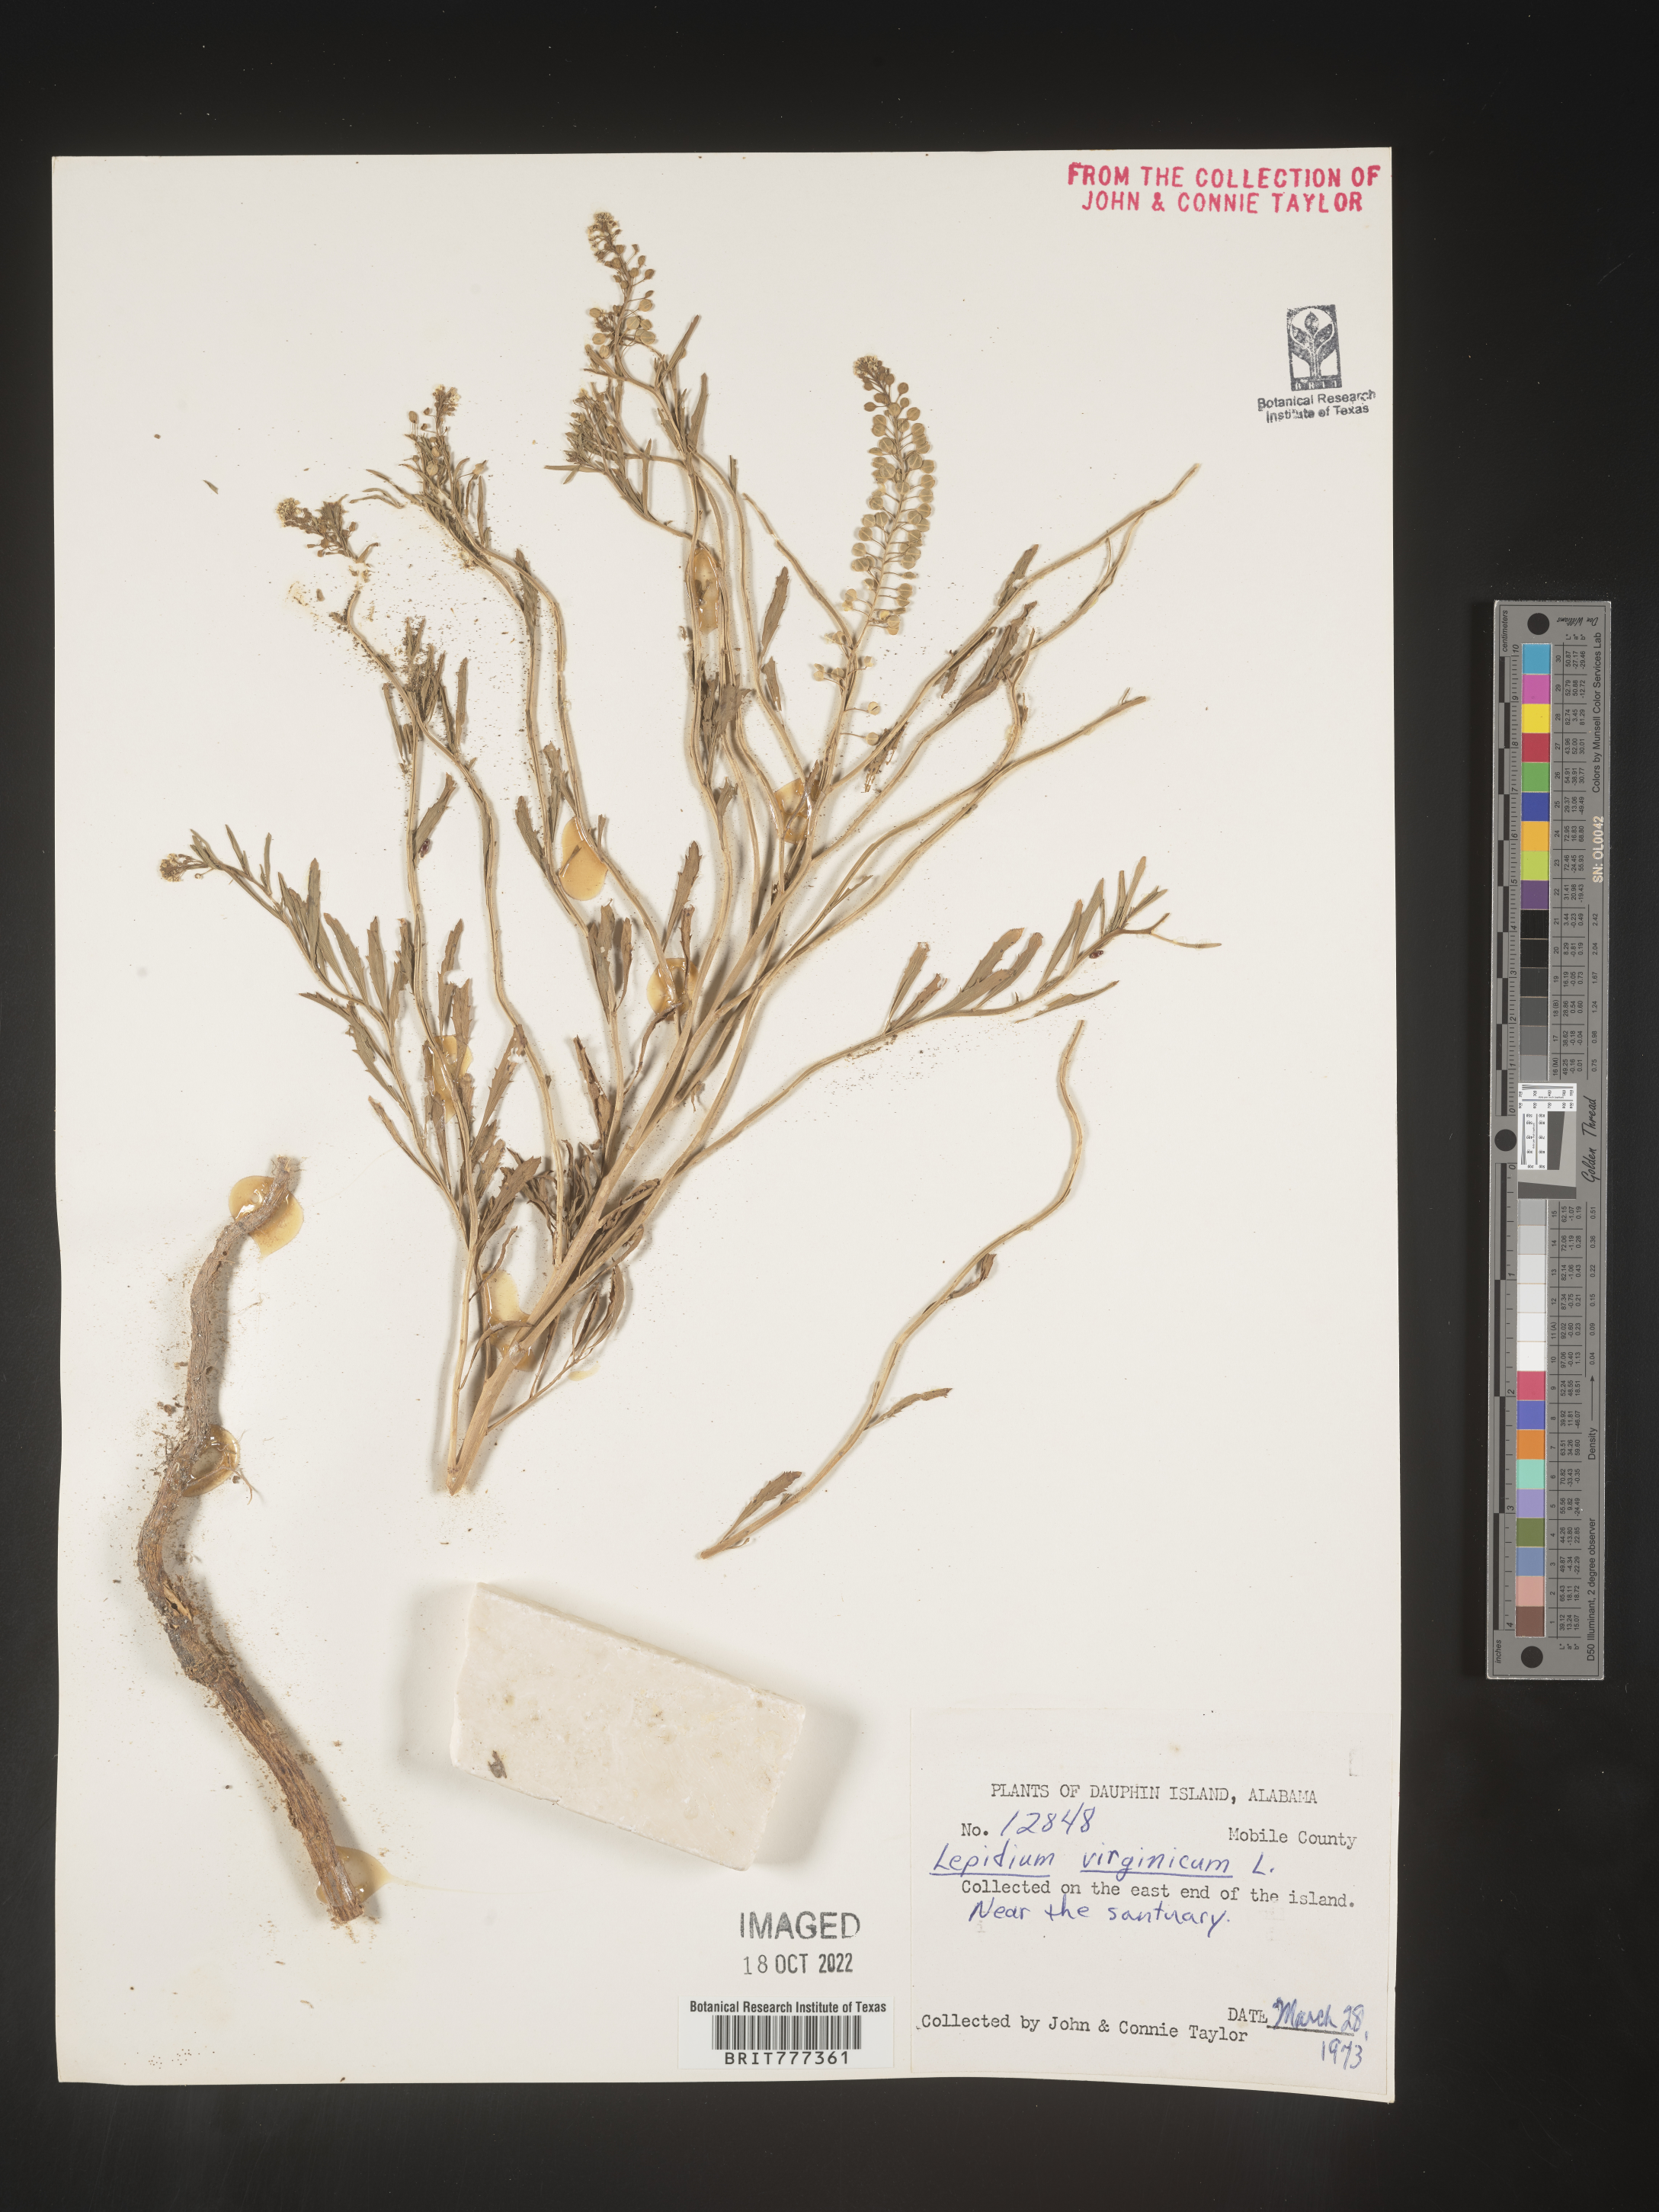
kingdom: Plantae
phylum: Tracheophyta
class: Magnoliopsida
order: Brassicales
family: Brassicaceae
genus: Lepidium
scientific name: Lepidium virginicum
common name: Least pepperwort
